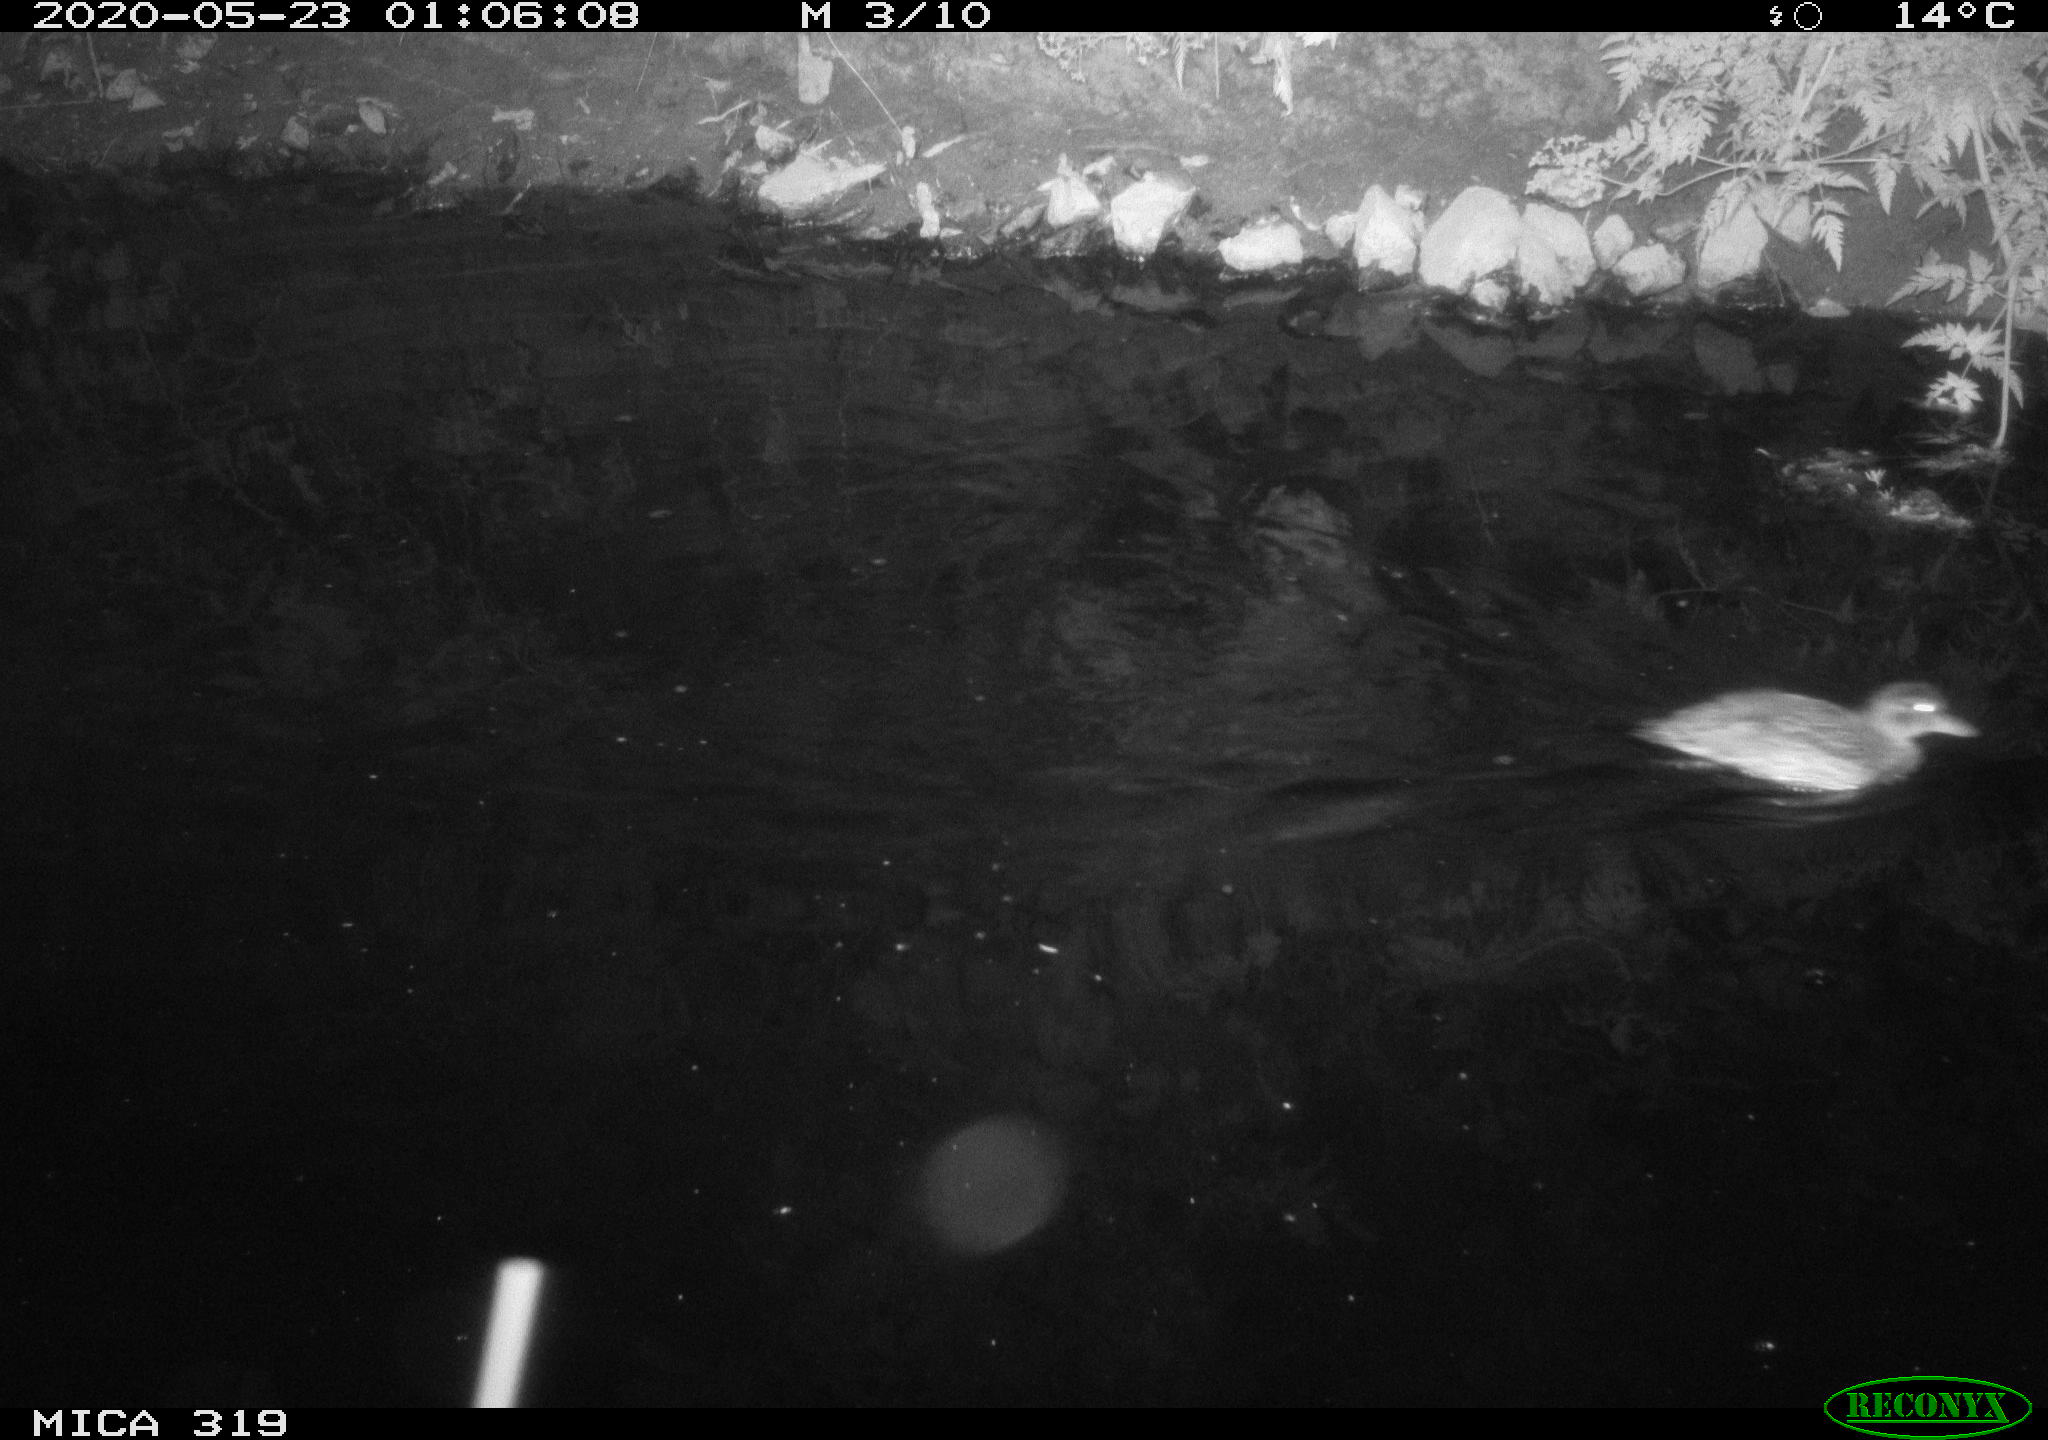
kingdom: Animalia
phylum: Chordata
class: Aves
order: Anseriformes
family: Anatidae
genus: Anas
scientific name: Anas platyrhynchos
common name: Mallard
